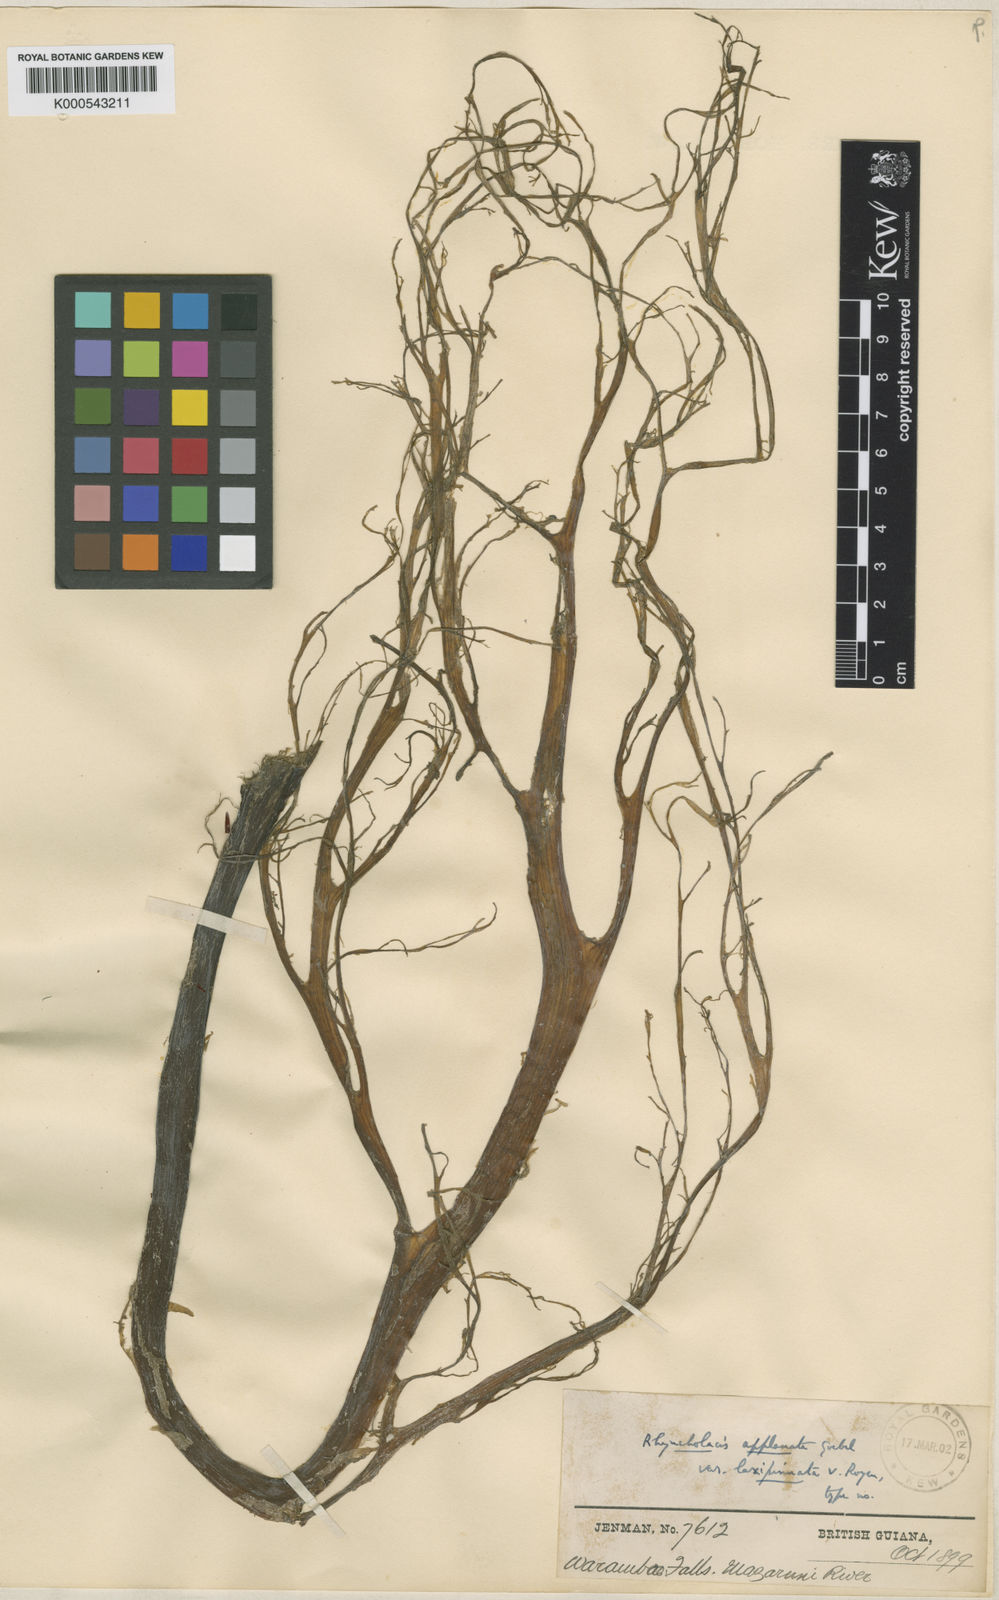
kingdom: Plantae
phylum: Tracheophyta
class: Magnoliopsida
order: Malpighiales
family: Podostemaceae
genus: Rhyncholacis
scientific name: Rhyncholacis applanata
